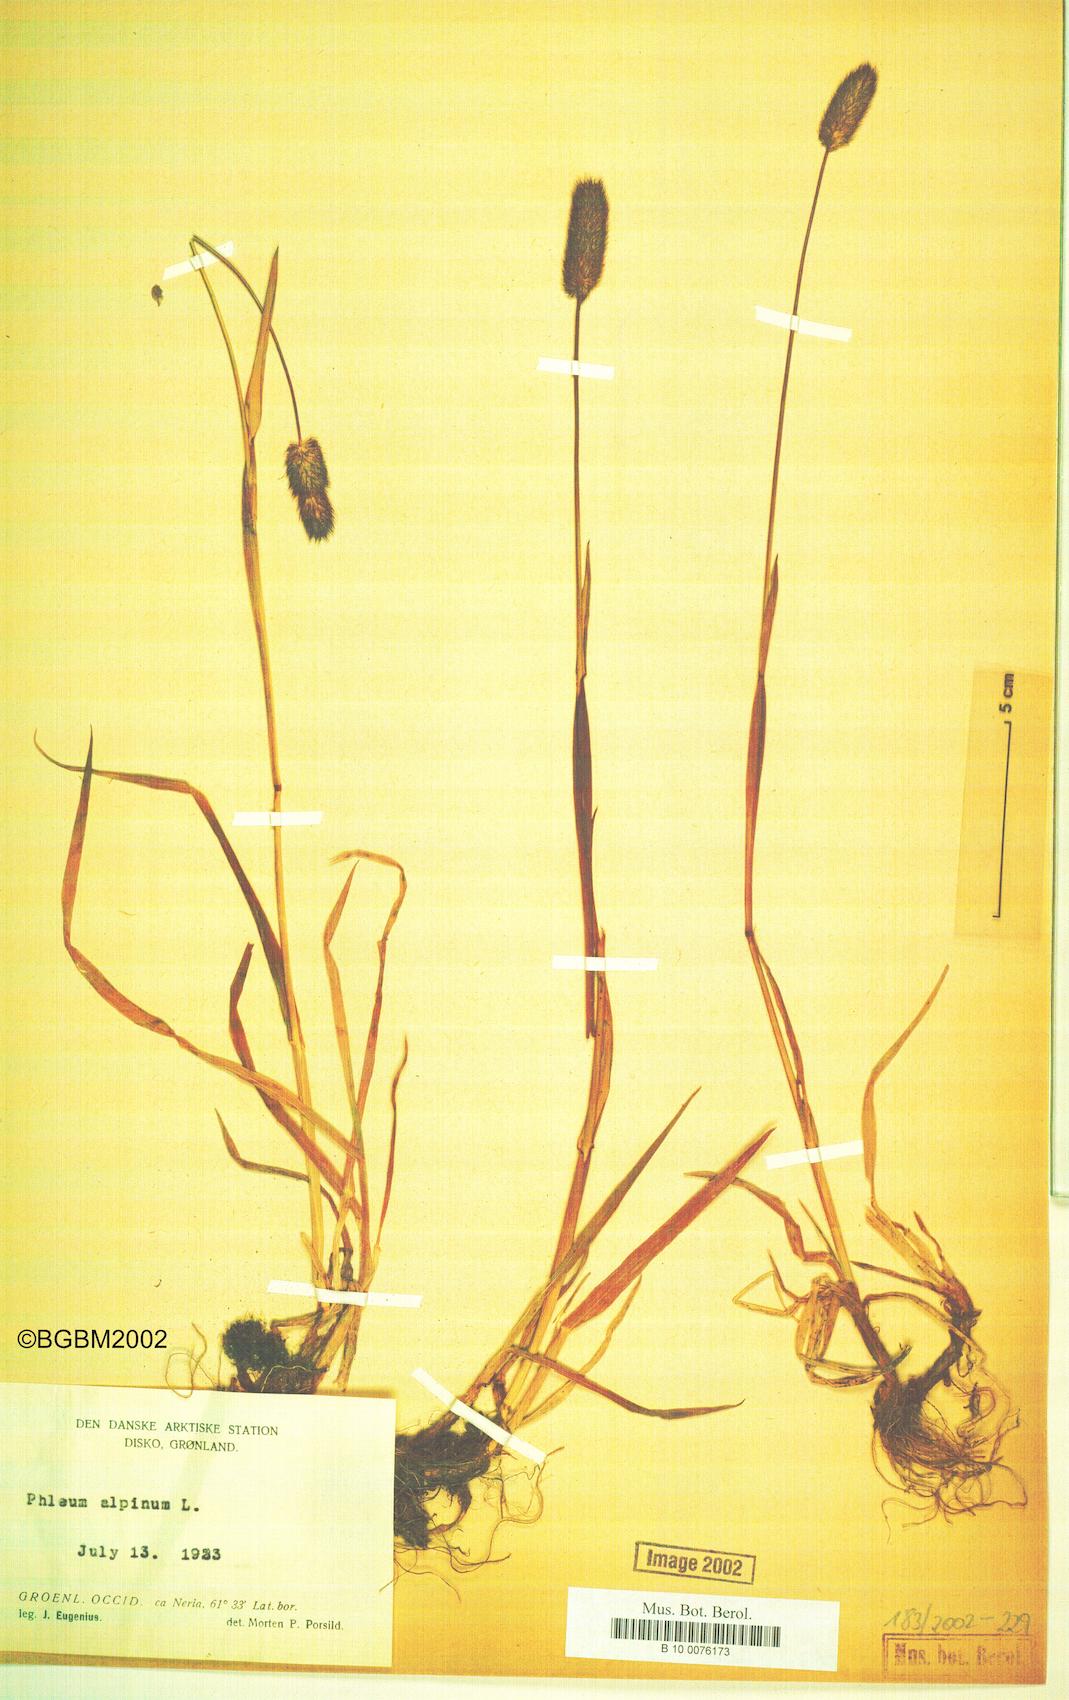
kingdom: Plantae
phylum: Tracheophyta
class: Liliopsida
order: Poales
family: Poaceae
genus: Phleum
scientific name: Phleum alpinum
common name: Alpine cat's-tail
